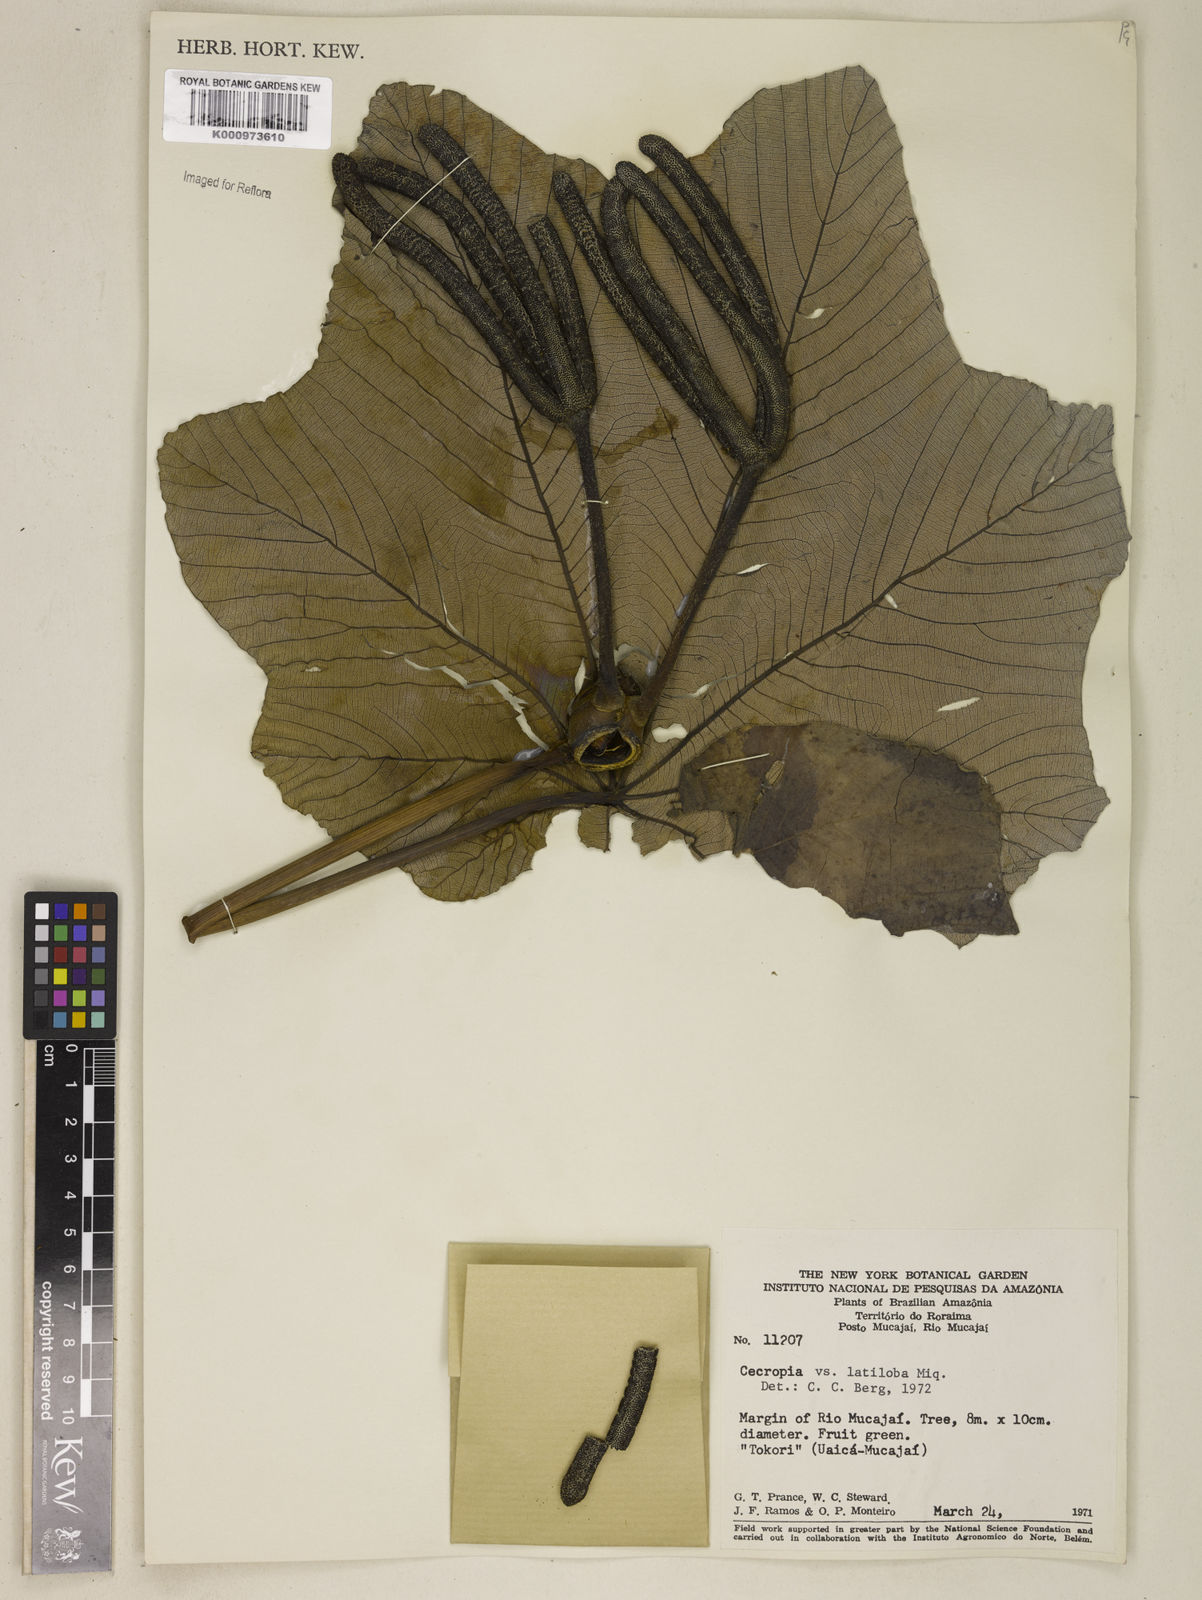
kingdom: Plantae
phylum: Tracheophyta
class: Magnoliopsida
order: Rosales
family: Urticaceae
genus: Cecropia
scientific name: Cecropia latiloba
